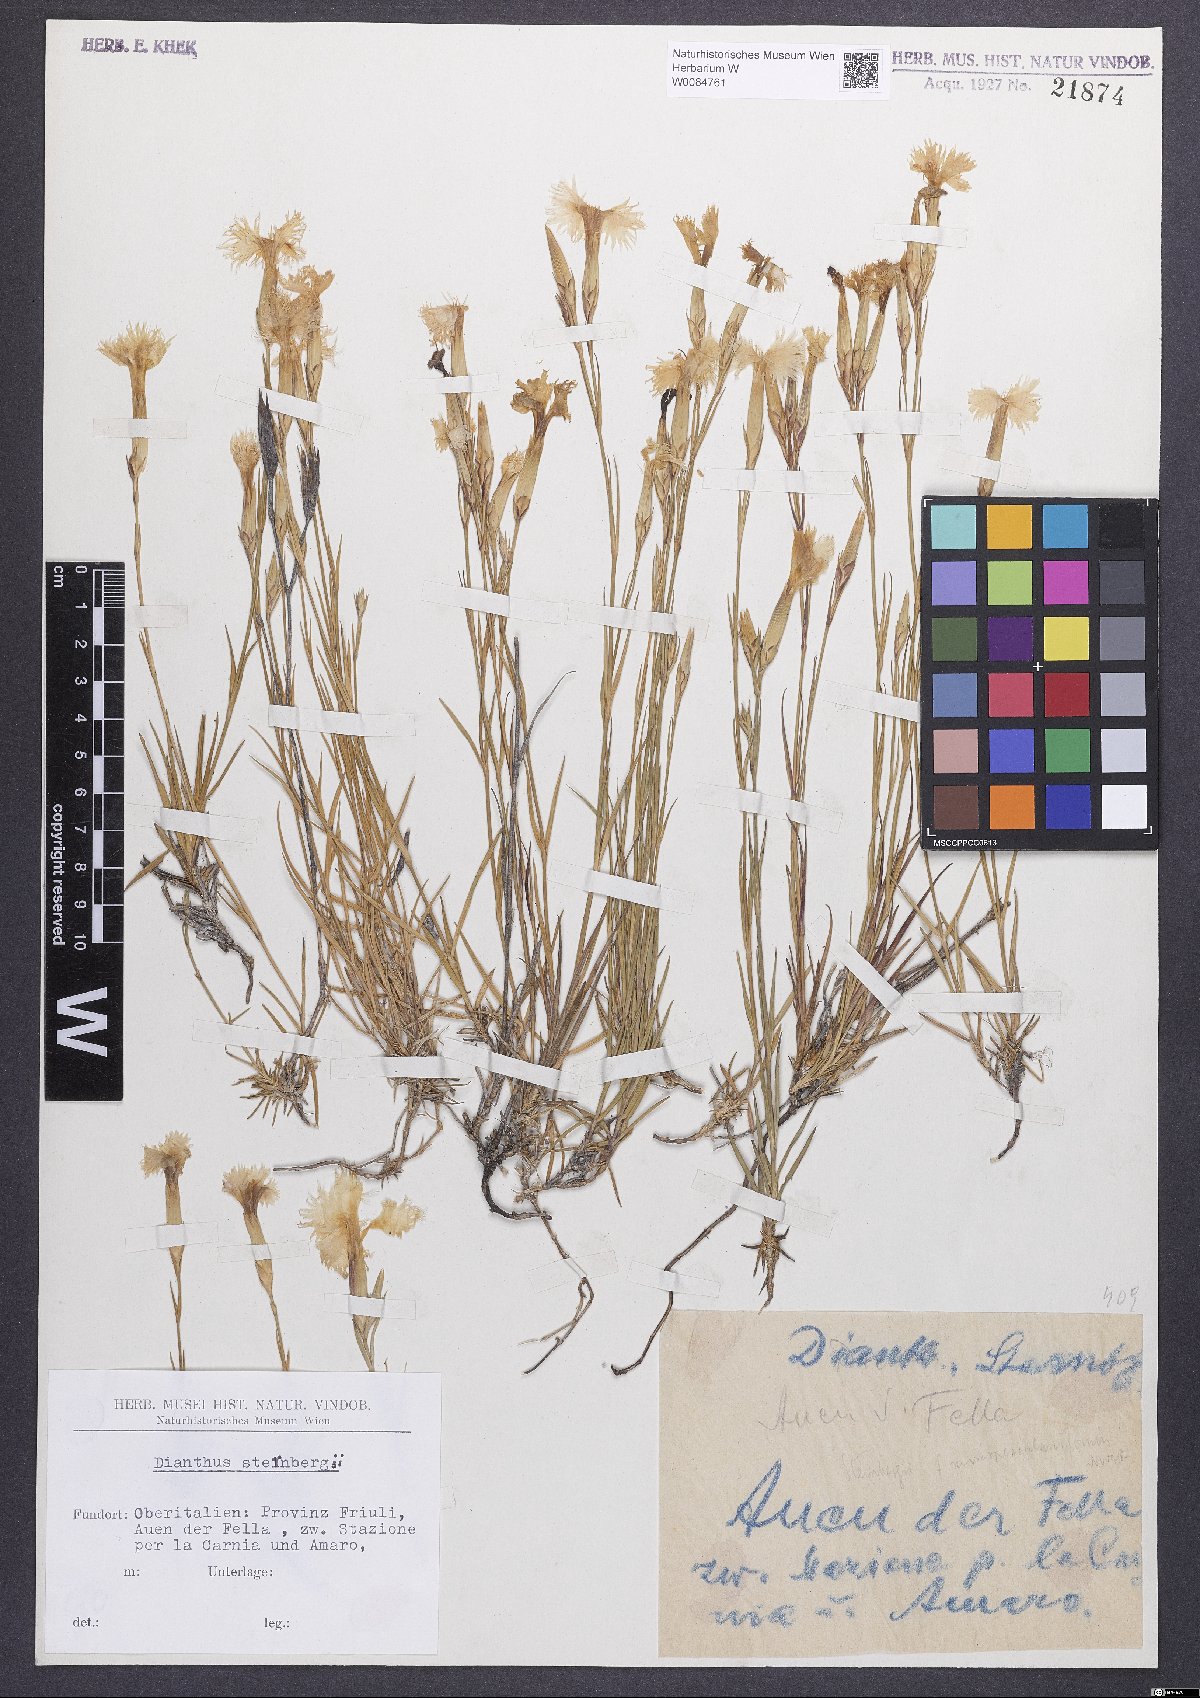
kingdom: Plantae
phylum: Tracheophyta
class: Magnoliopsida
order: Caryophyllales
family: Caryophyllaceae
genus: Dianthus
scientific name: Dianthus monspessulanus
